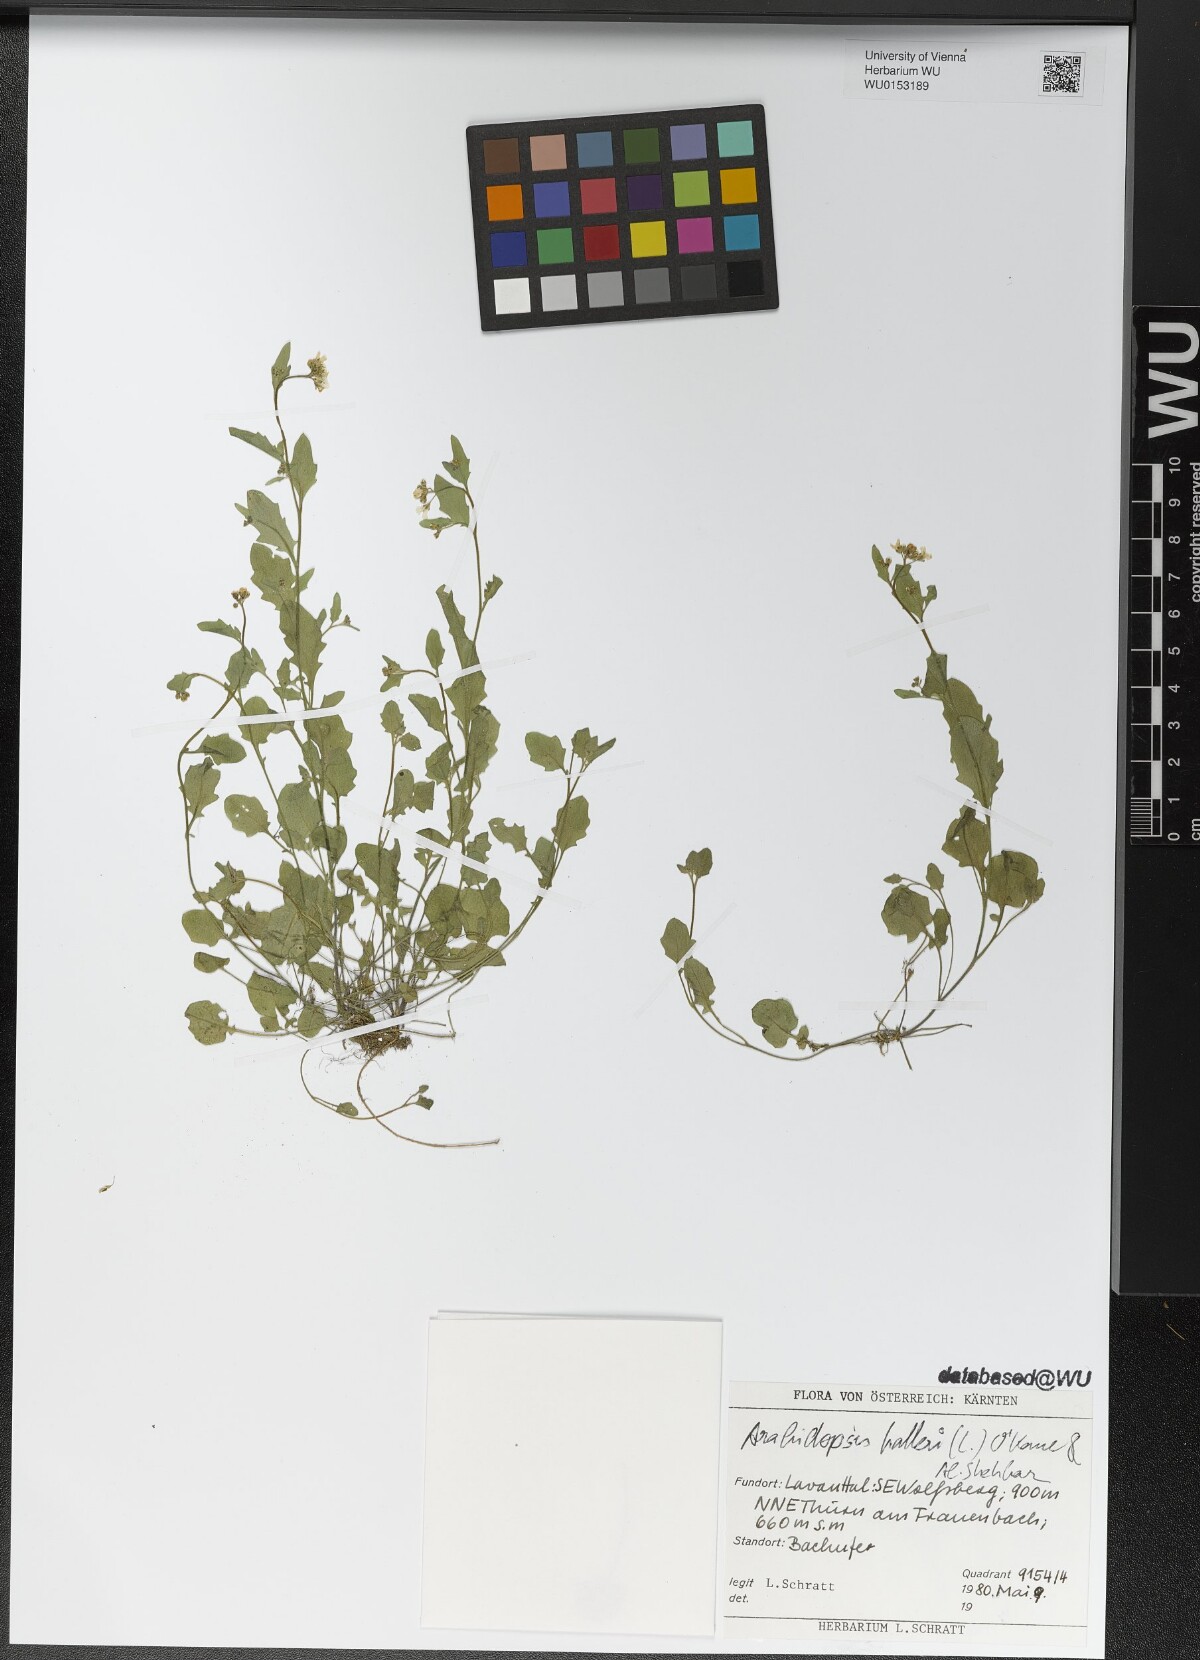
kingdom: Plantae
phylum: Tracheophyta
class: Magnoliopsida
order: Brassicales
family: Brassicaceae
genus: Arabidopsis
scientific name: Arabidopsis halleri
